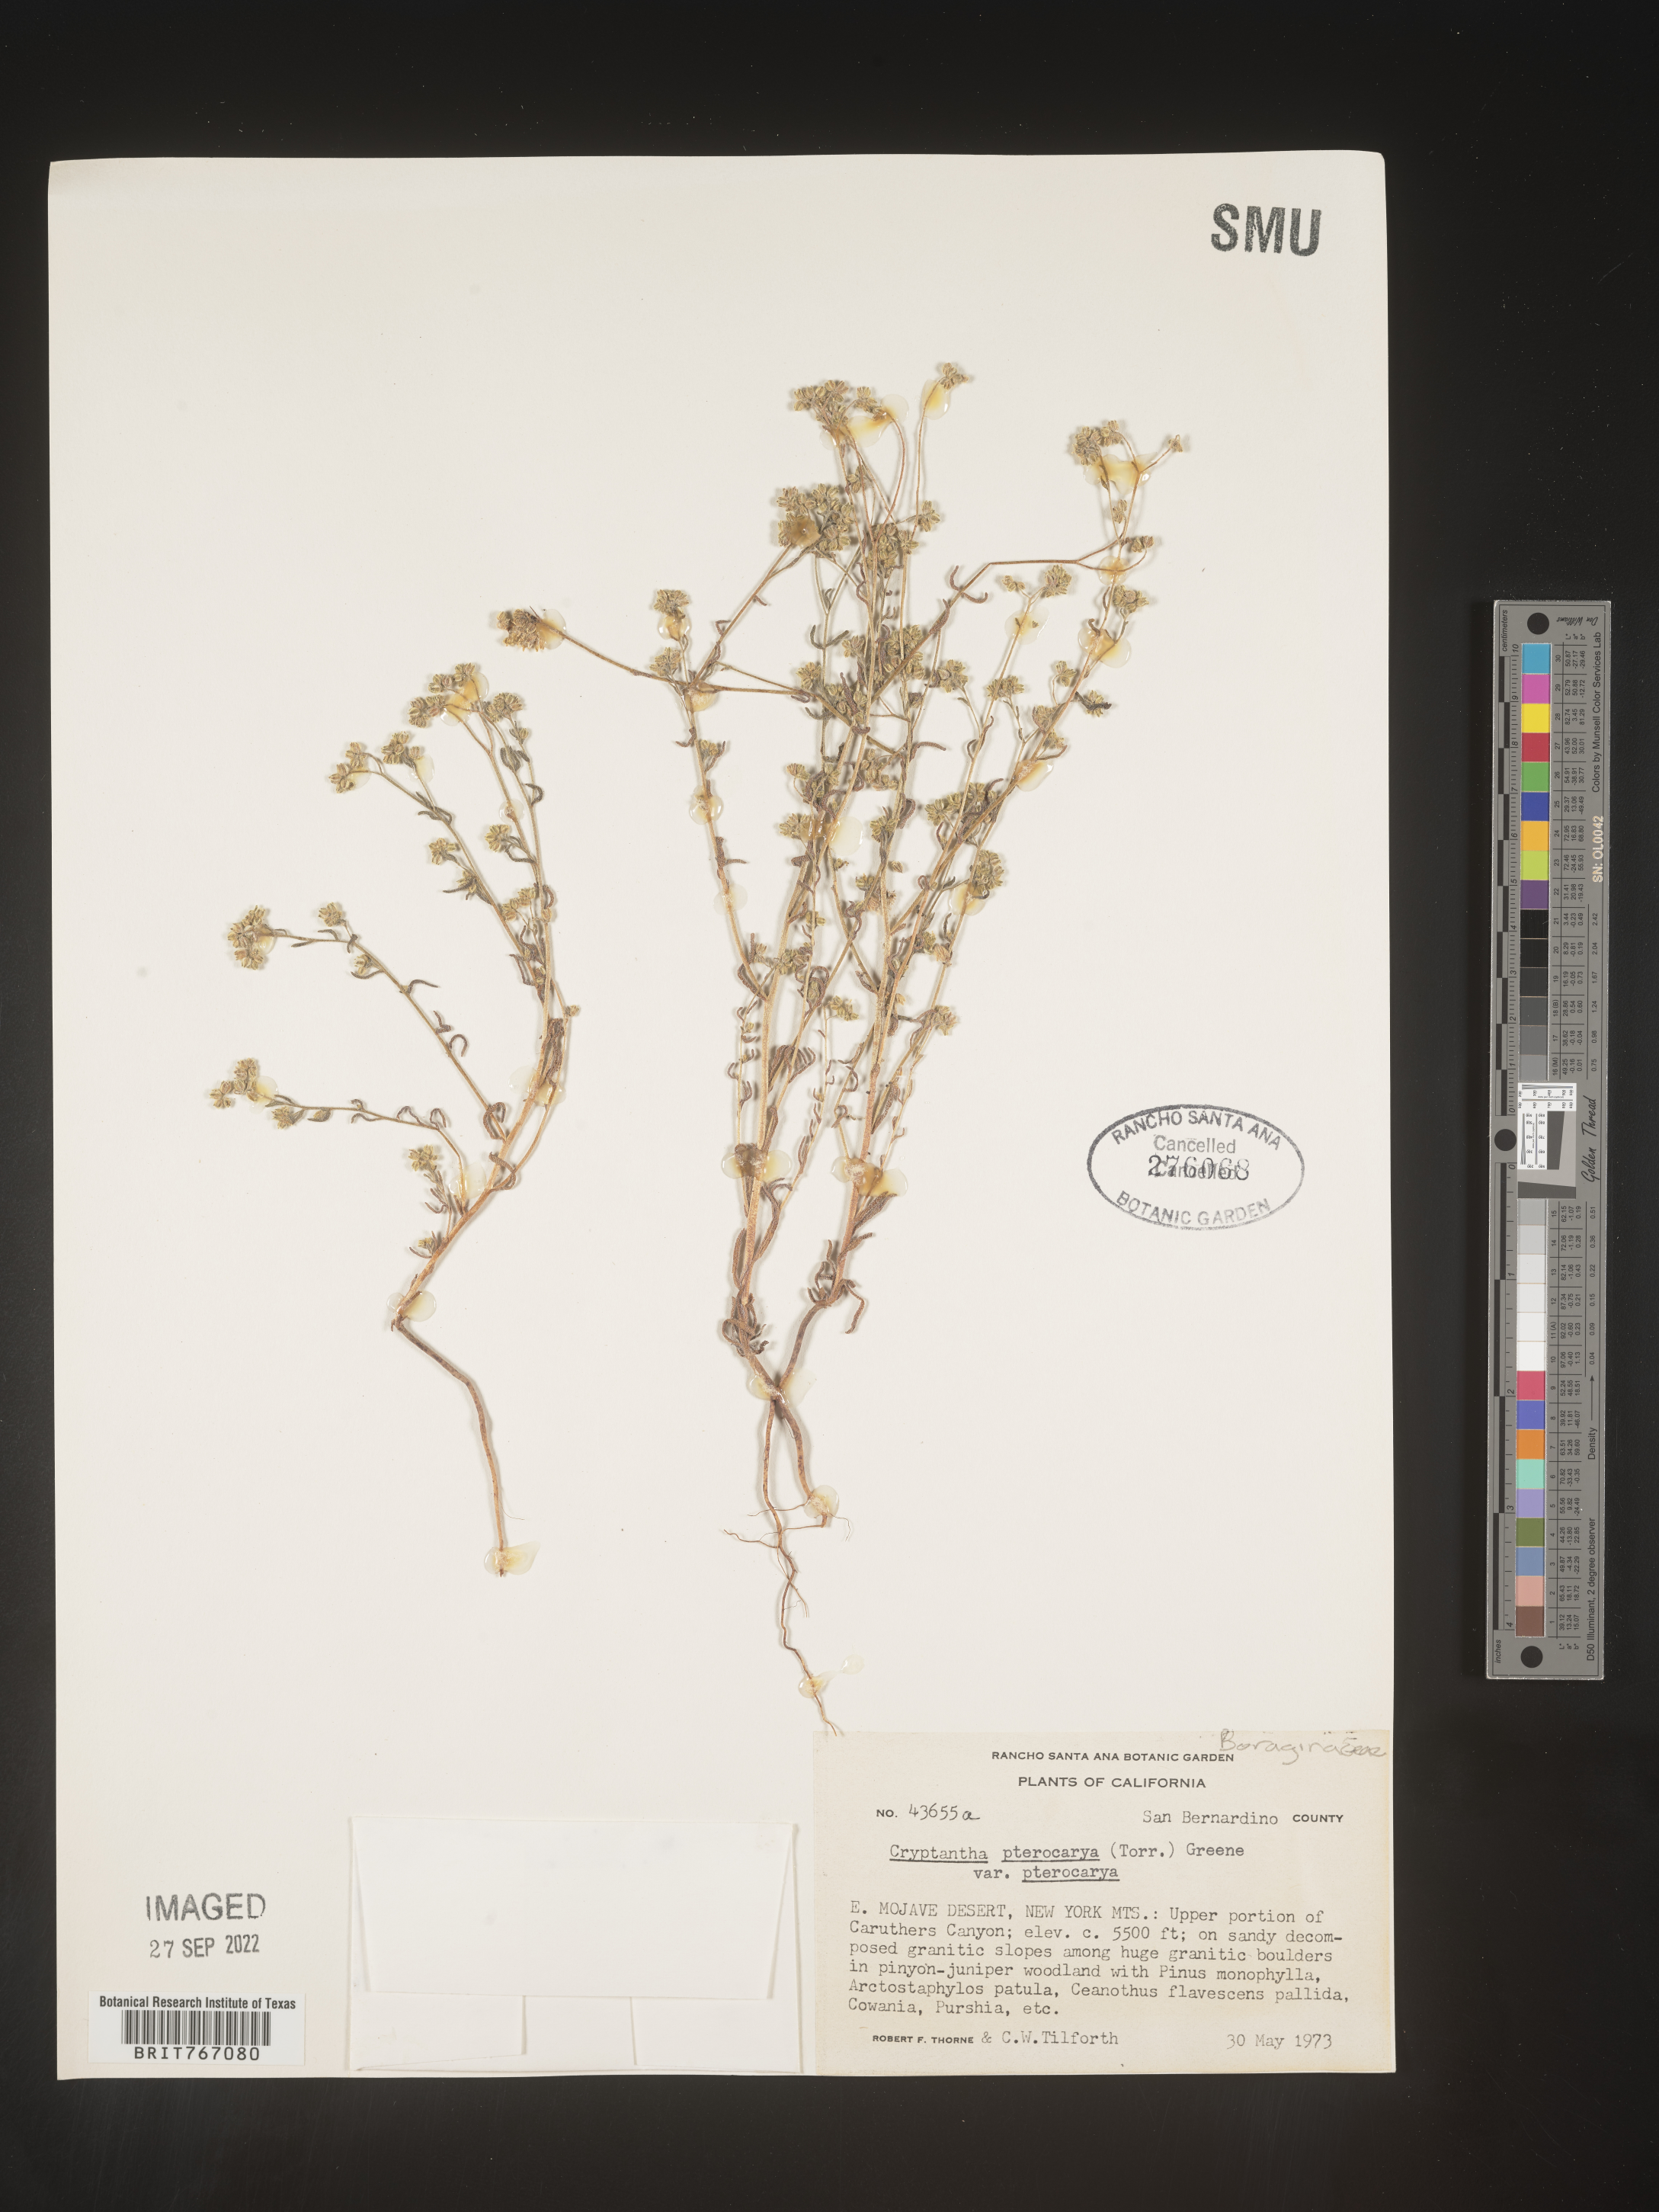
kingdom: Plantae
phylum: Tracheophyta
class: Magnoliopsida
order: Boraginales
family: Boraginaceae
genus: Cryptantha
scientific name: Cryptantha pterocarya
